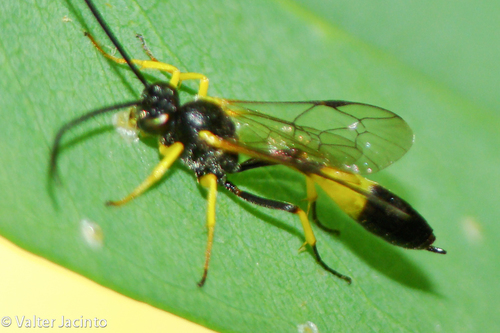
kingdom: Animalia
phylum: Arthropoda
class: Insecta
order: Hymenoptera
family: Ichneumonidae
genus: Dusona
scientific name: Dusona
